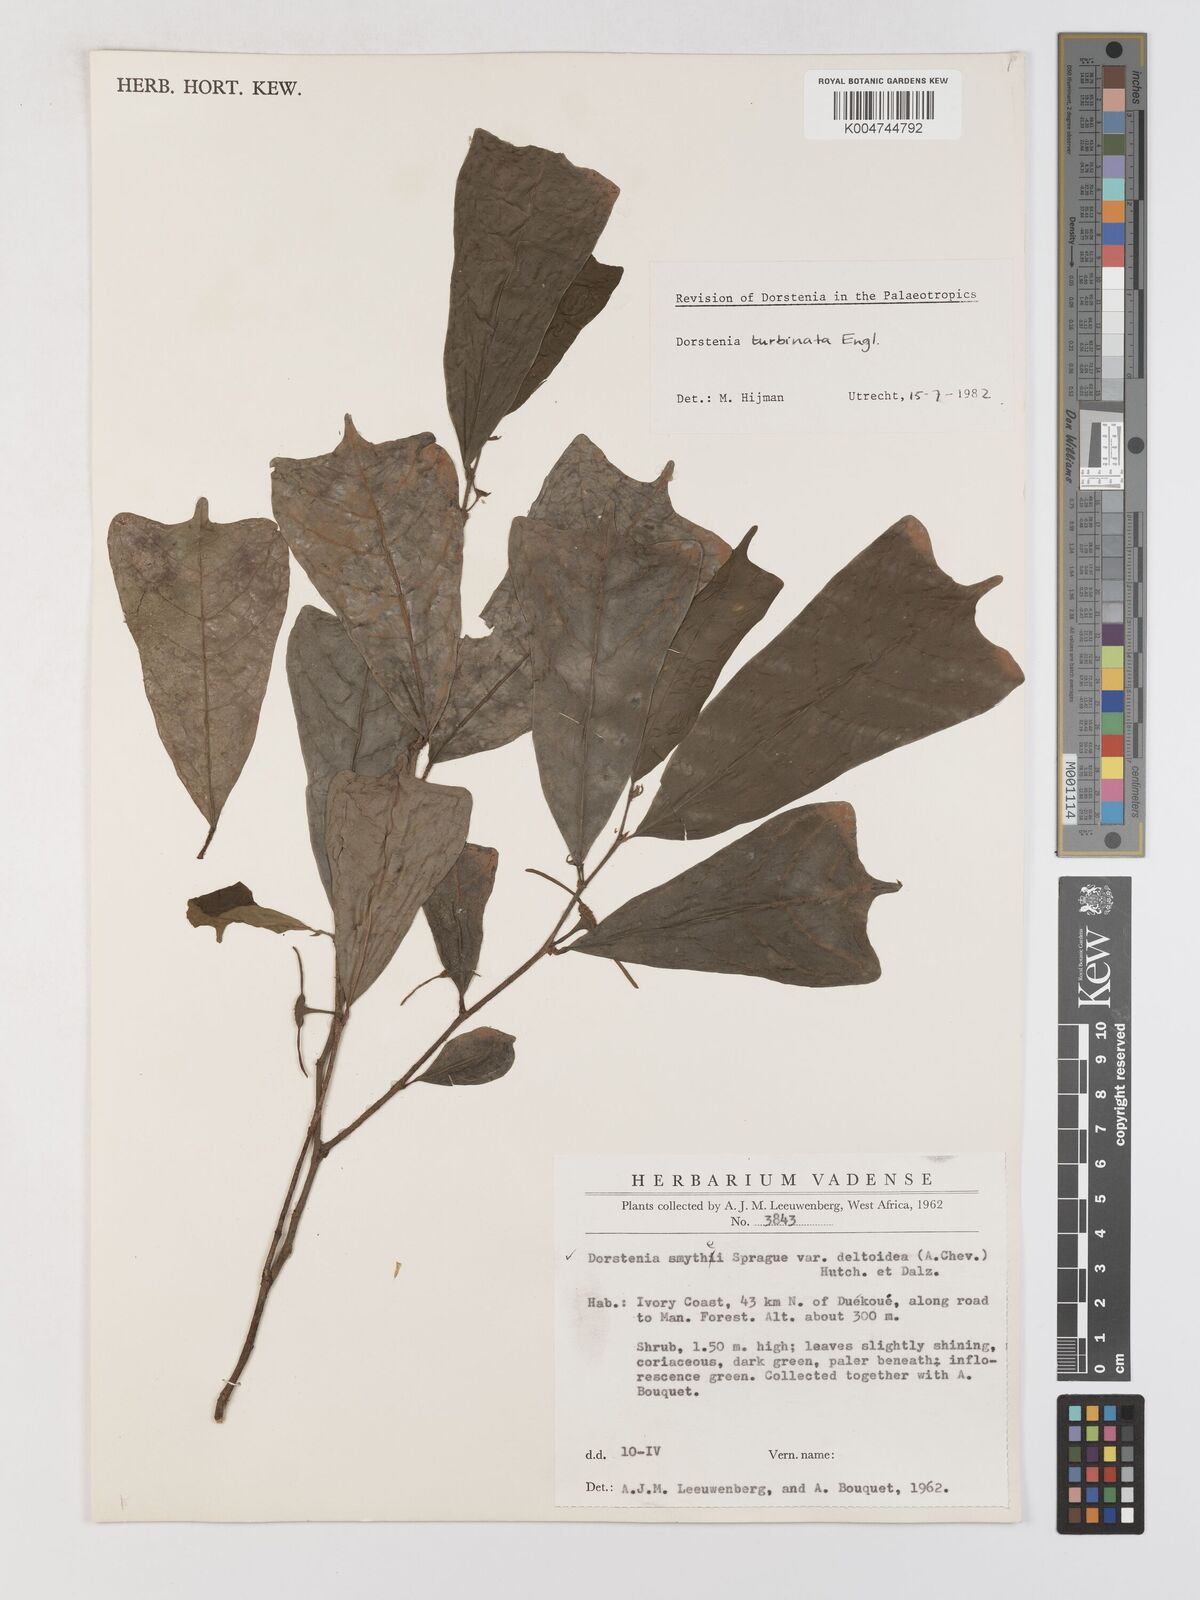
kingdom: Plantae
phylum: Tracheophyta
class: Magnoliopsida
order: Rosales
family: Moraceae
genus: Hijmania
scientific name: Hijmania turbinata
